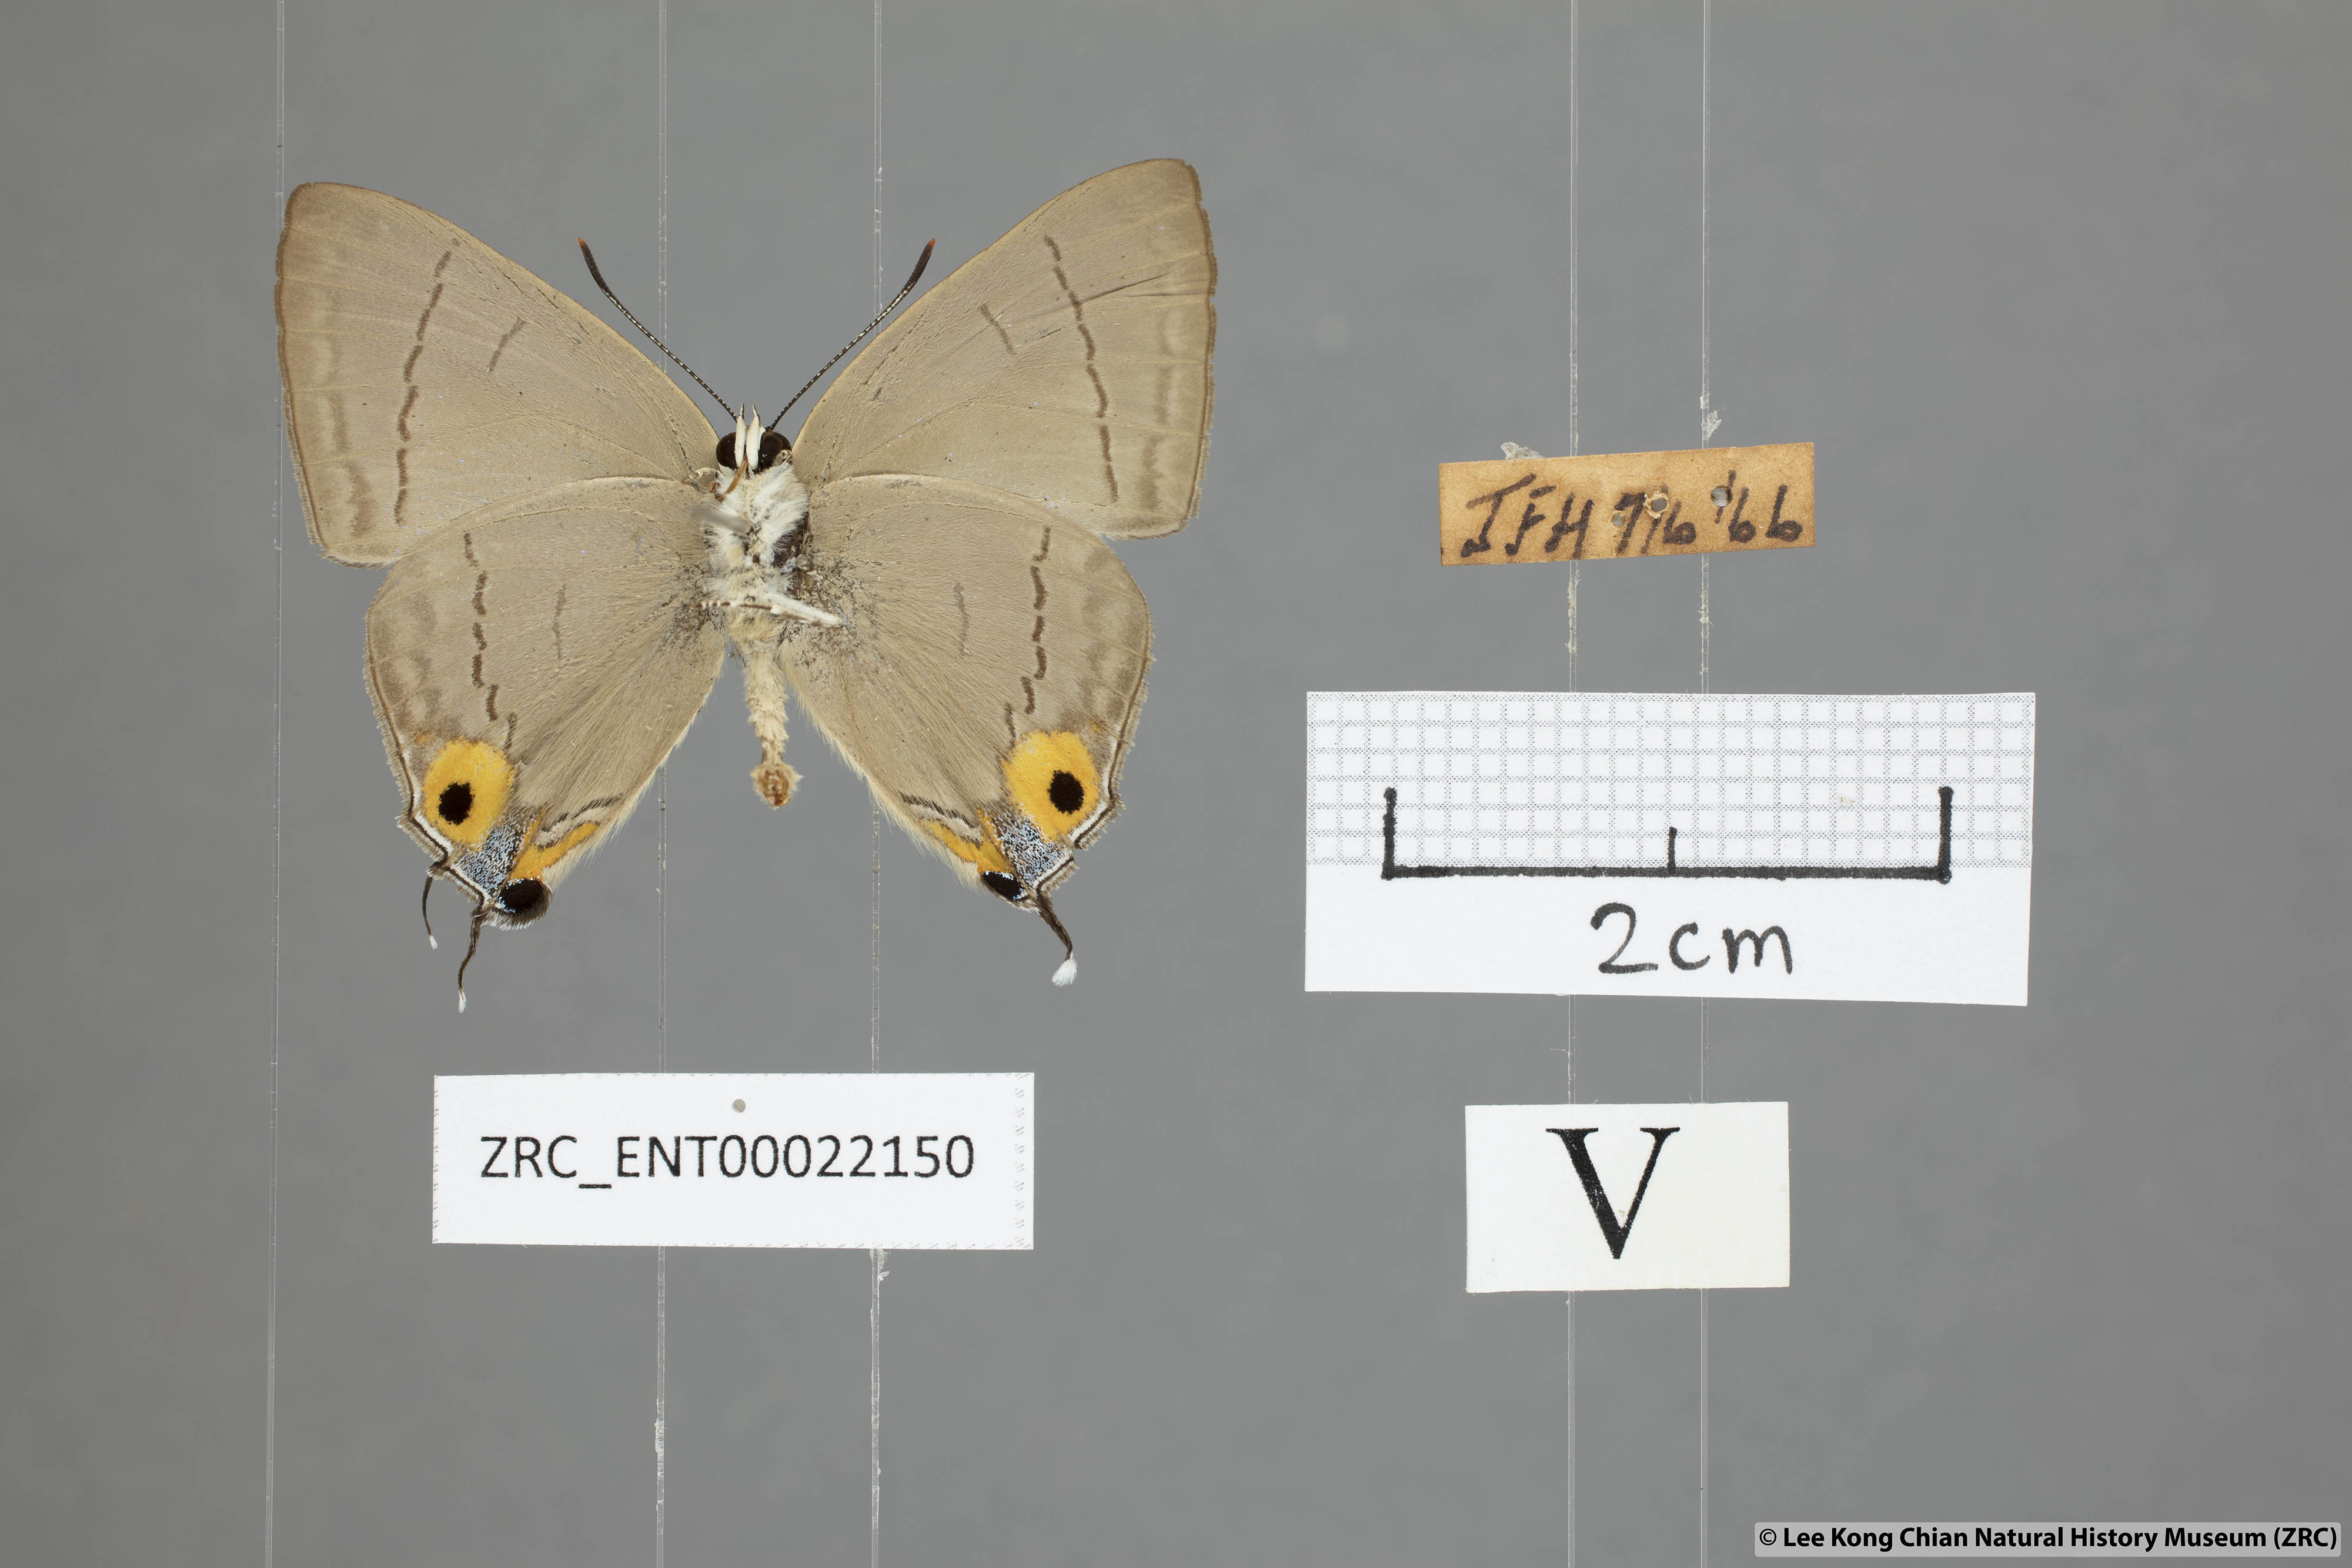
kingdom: Animalia
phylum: Arthropoda
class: Insecta
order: Lepidoptera
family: Lycaenidae
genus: Tajuria
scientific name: Tajuria albiplaga
